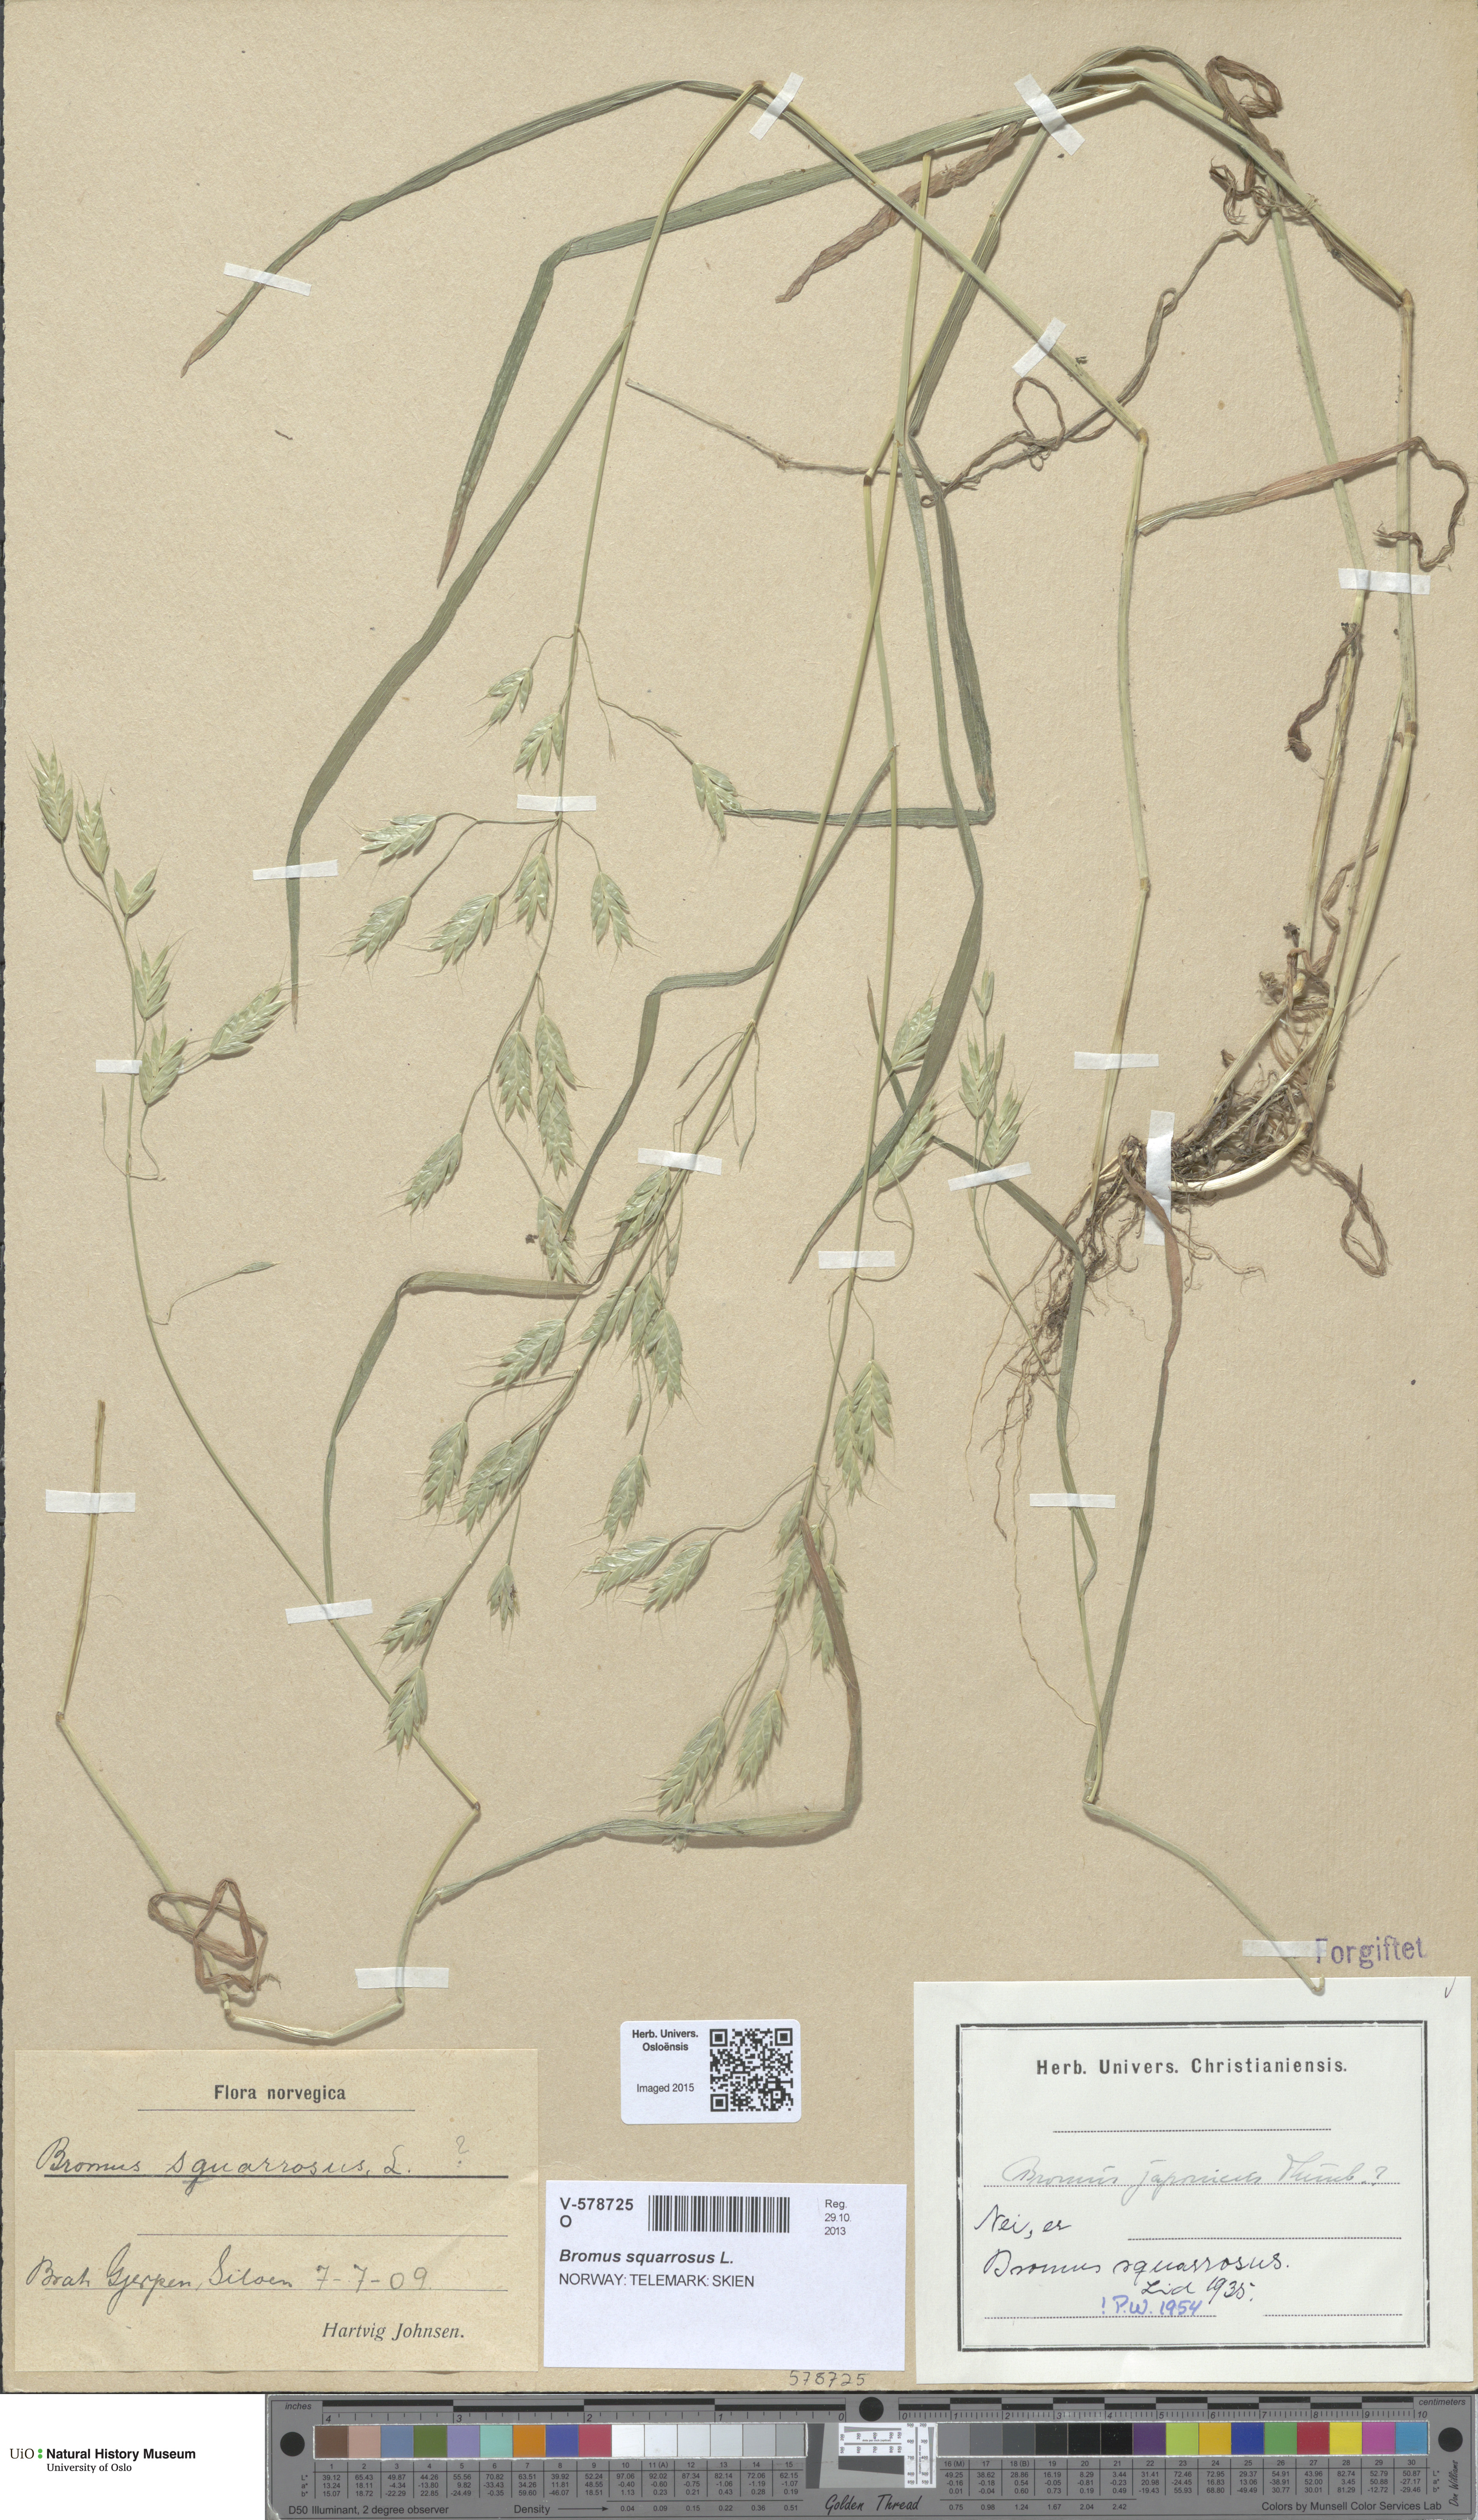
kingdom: Plantae
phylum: Tracheophyta
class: Liliopsida
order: Poales
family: Poaceae
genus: Bromus
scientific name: Bromus squarrosus
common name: Corn brome
